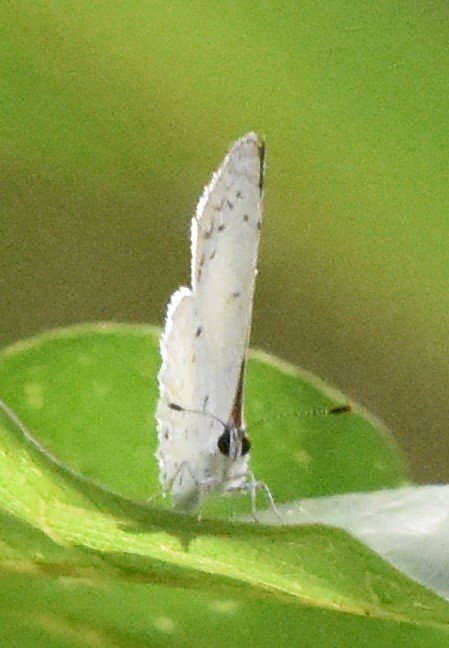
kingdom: Animalia
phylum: Arthropoda
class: Insecta
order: Lepidoptera
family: Lycaenidae
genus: Cyaniris
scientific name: Cyaniris neglecta
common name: Summer Azure
